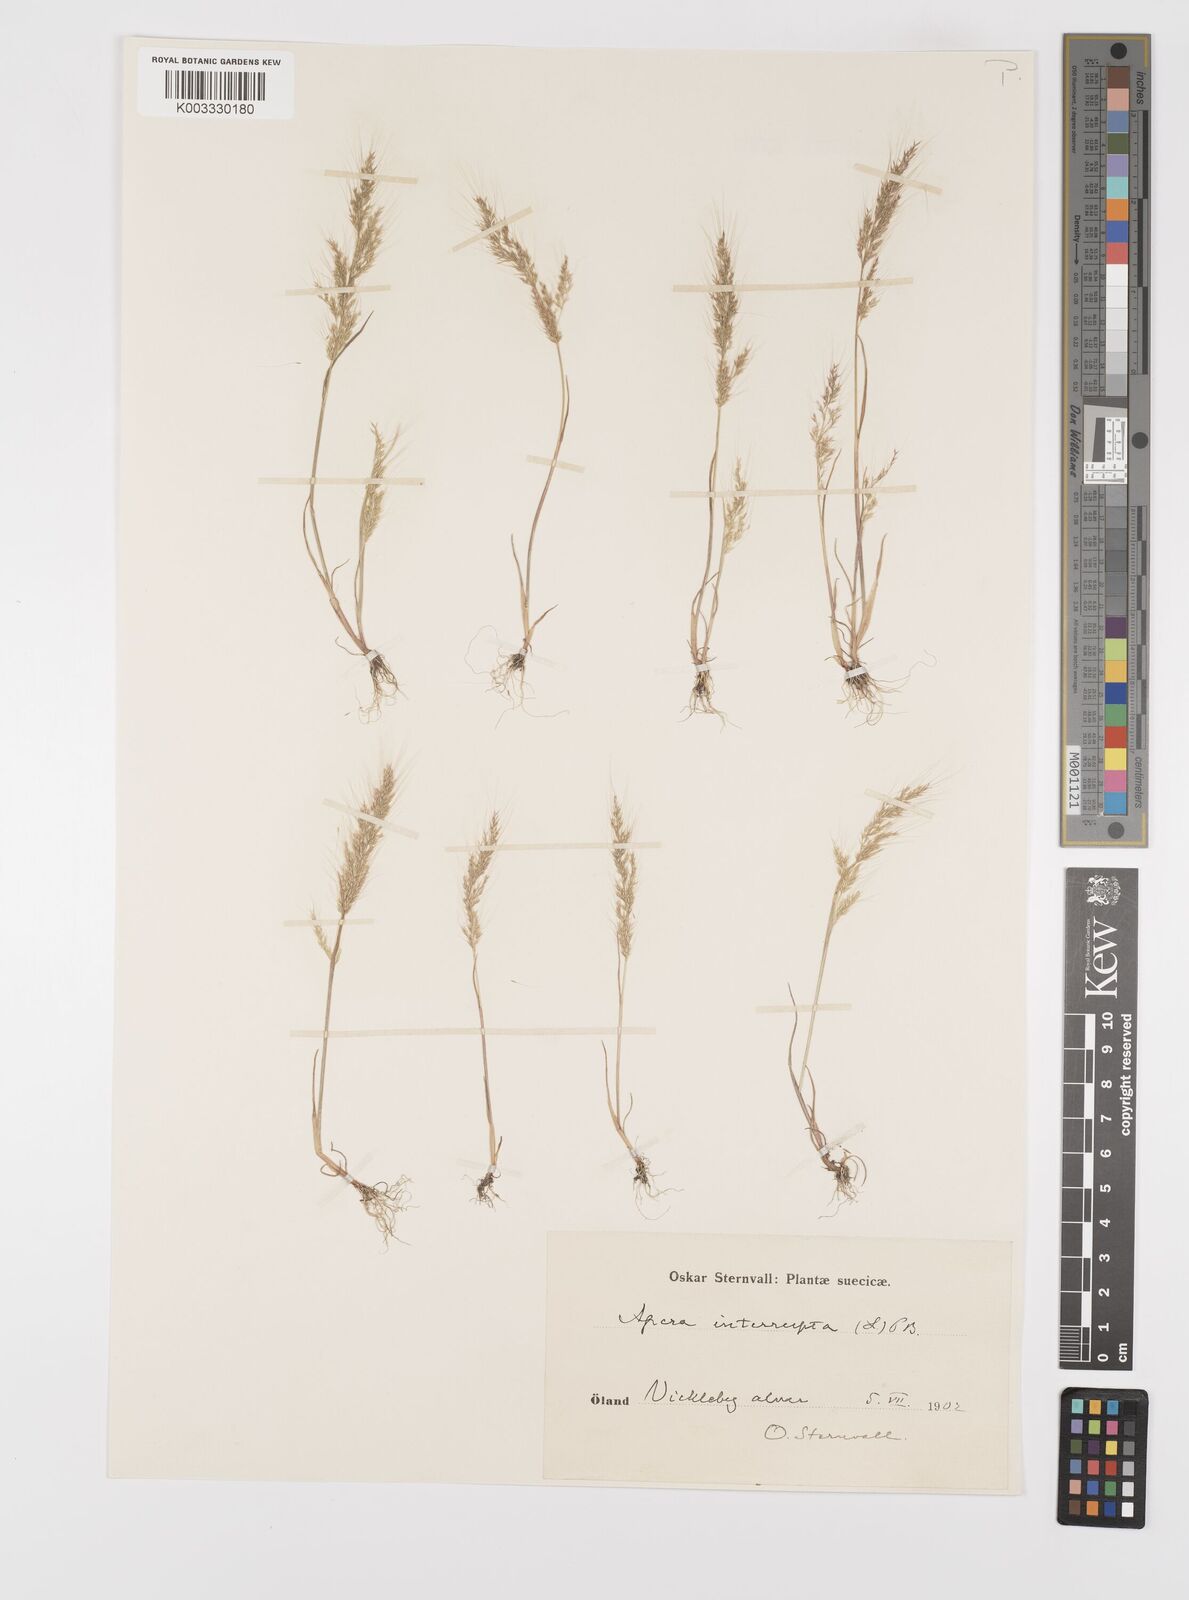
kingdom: Plantae
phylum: Tracheophyta
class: Liliopsida
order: Poales
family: Poaceae
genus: Apera
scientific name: Apera interrupta
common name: Dense silky-bent
